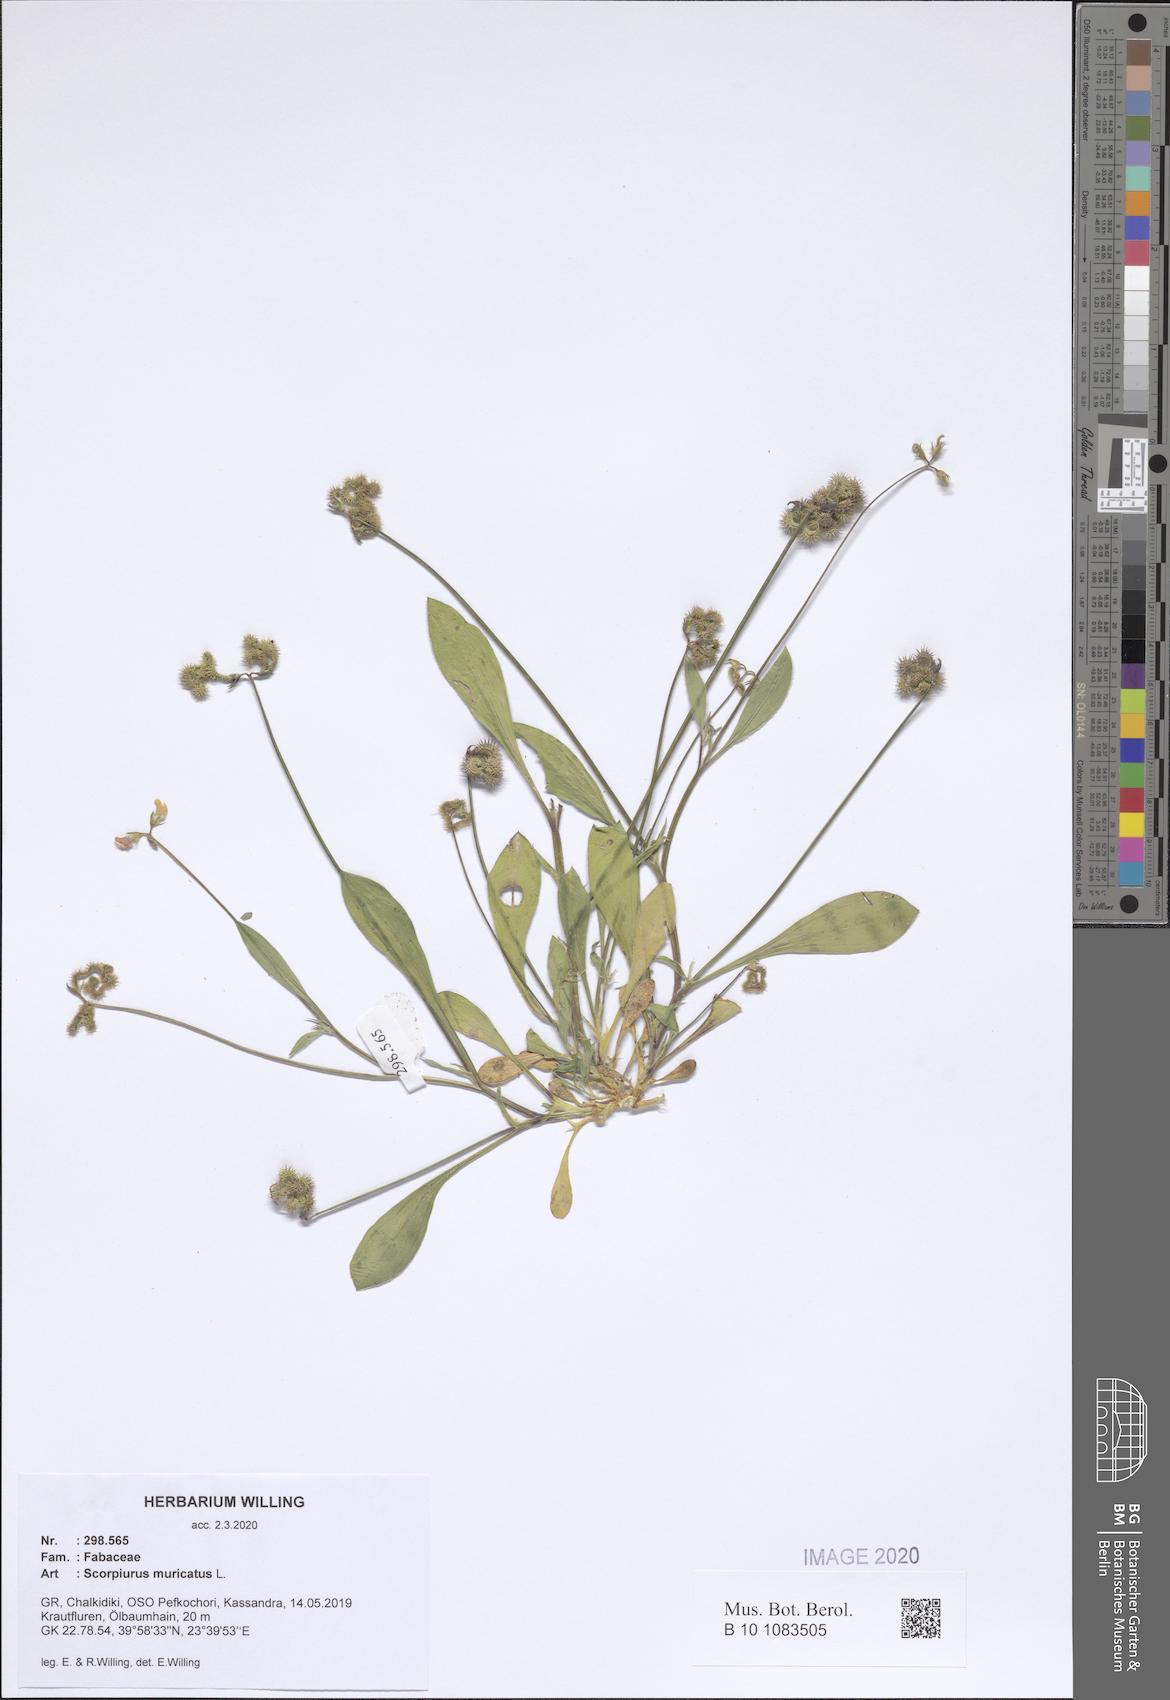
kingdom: Plantae
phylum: Tracheophyta
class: Magnoliopsida
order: Fabales
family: Fabaceae
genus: Scorpiurus
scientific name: Scorpiurus muricatus
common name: Caterpillar-plant
